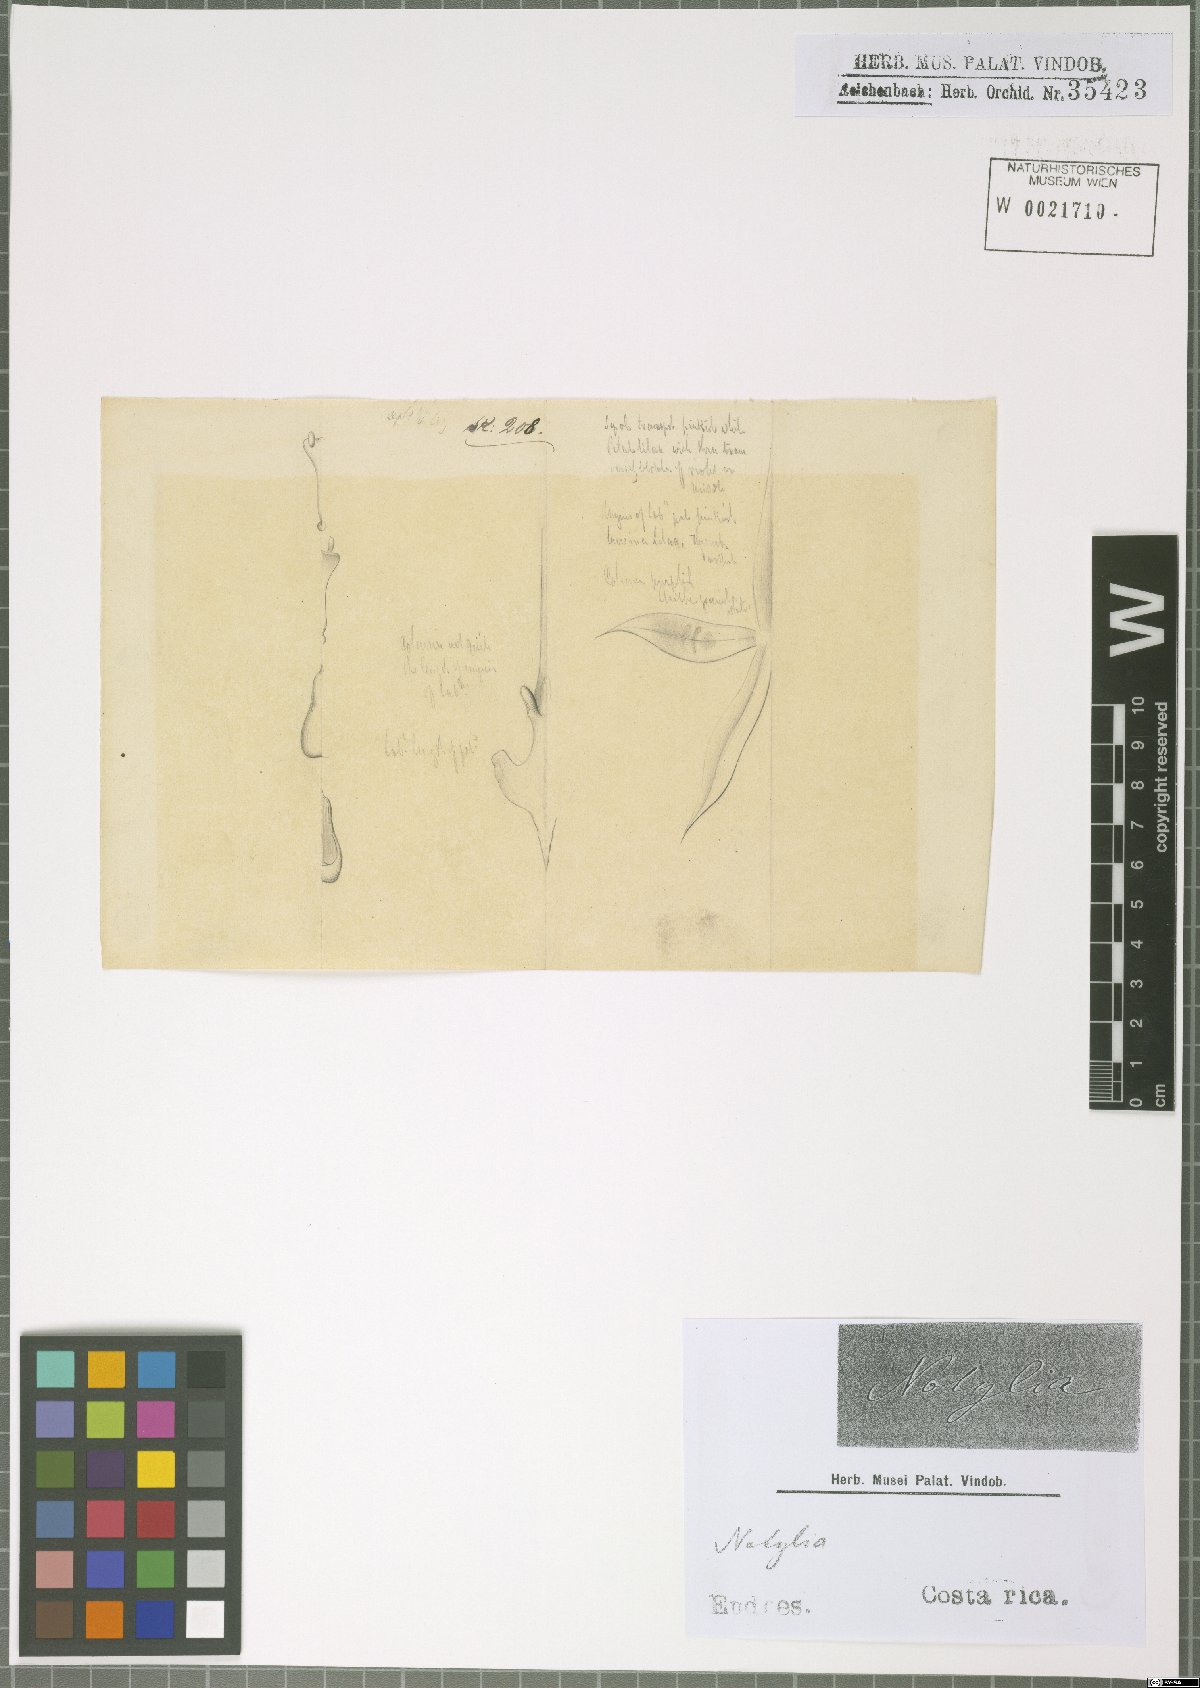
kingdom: Plantae
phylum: Tracheophyta
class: Liliopsida
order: Asparagales
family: Orchidaceae
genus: Macroclinium
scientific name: Macroclinium
